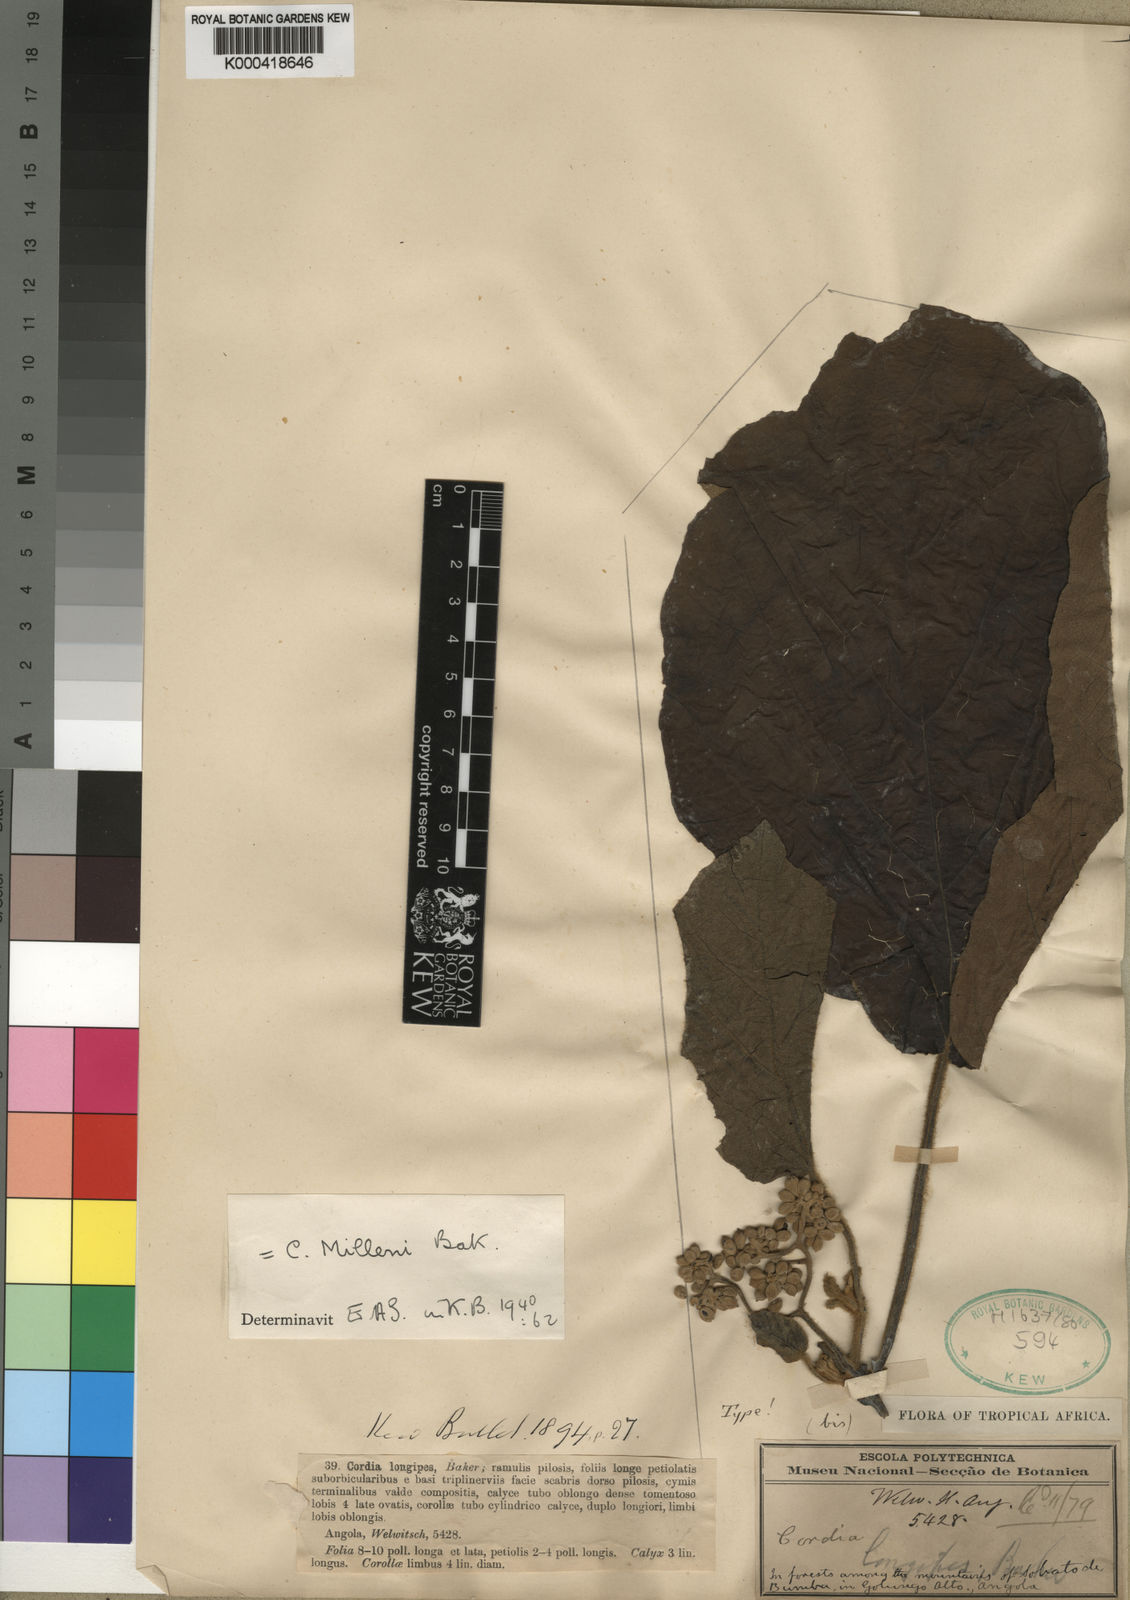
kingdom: Plantae
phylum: Tracheophyta
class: Magnoliopsida
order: Boraginales
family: Cordiaceae
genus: Cordia
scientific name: Cordia millenii
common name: Drum tree
